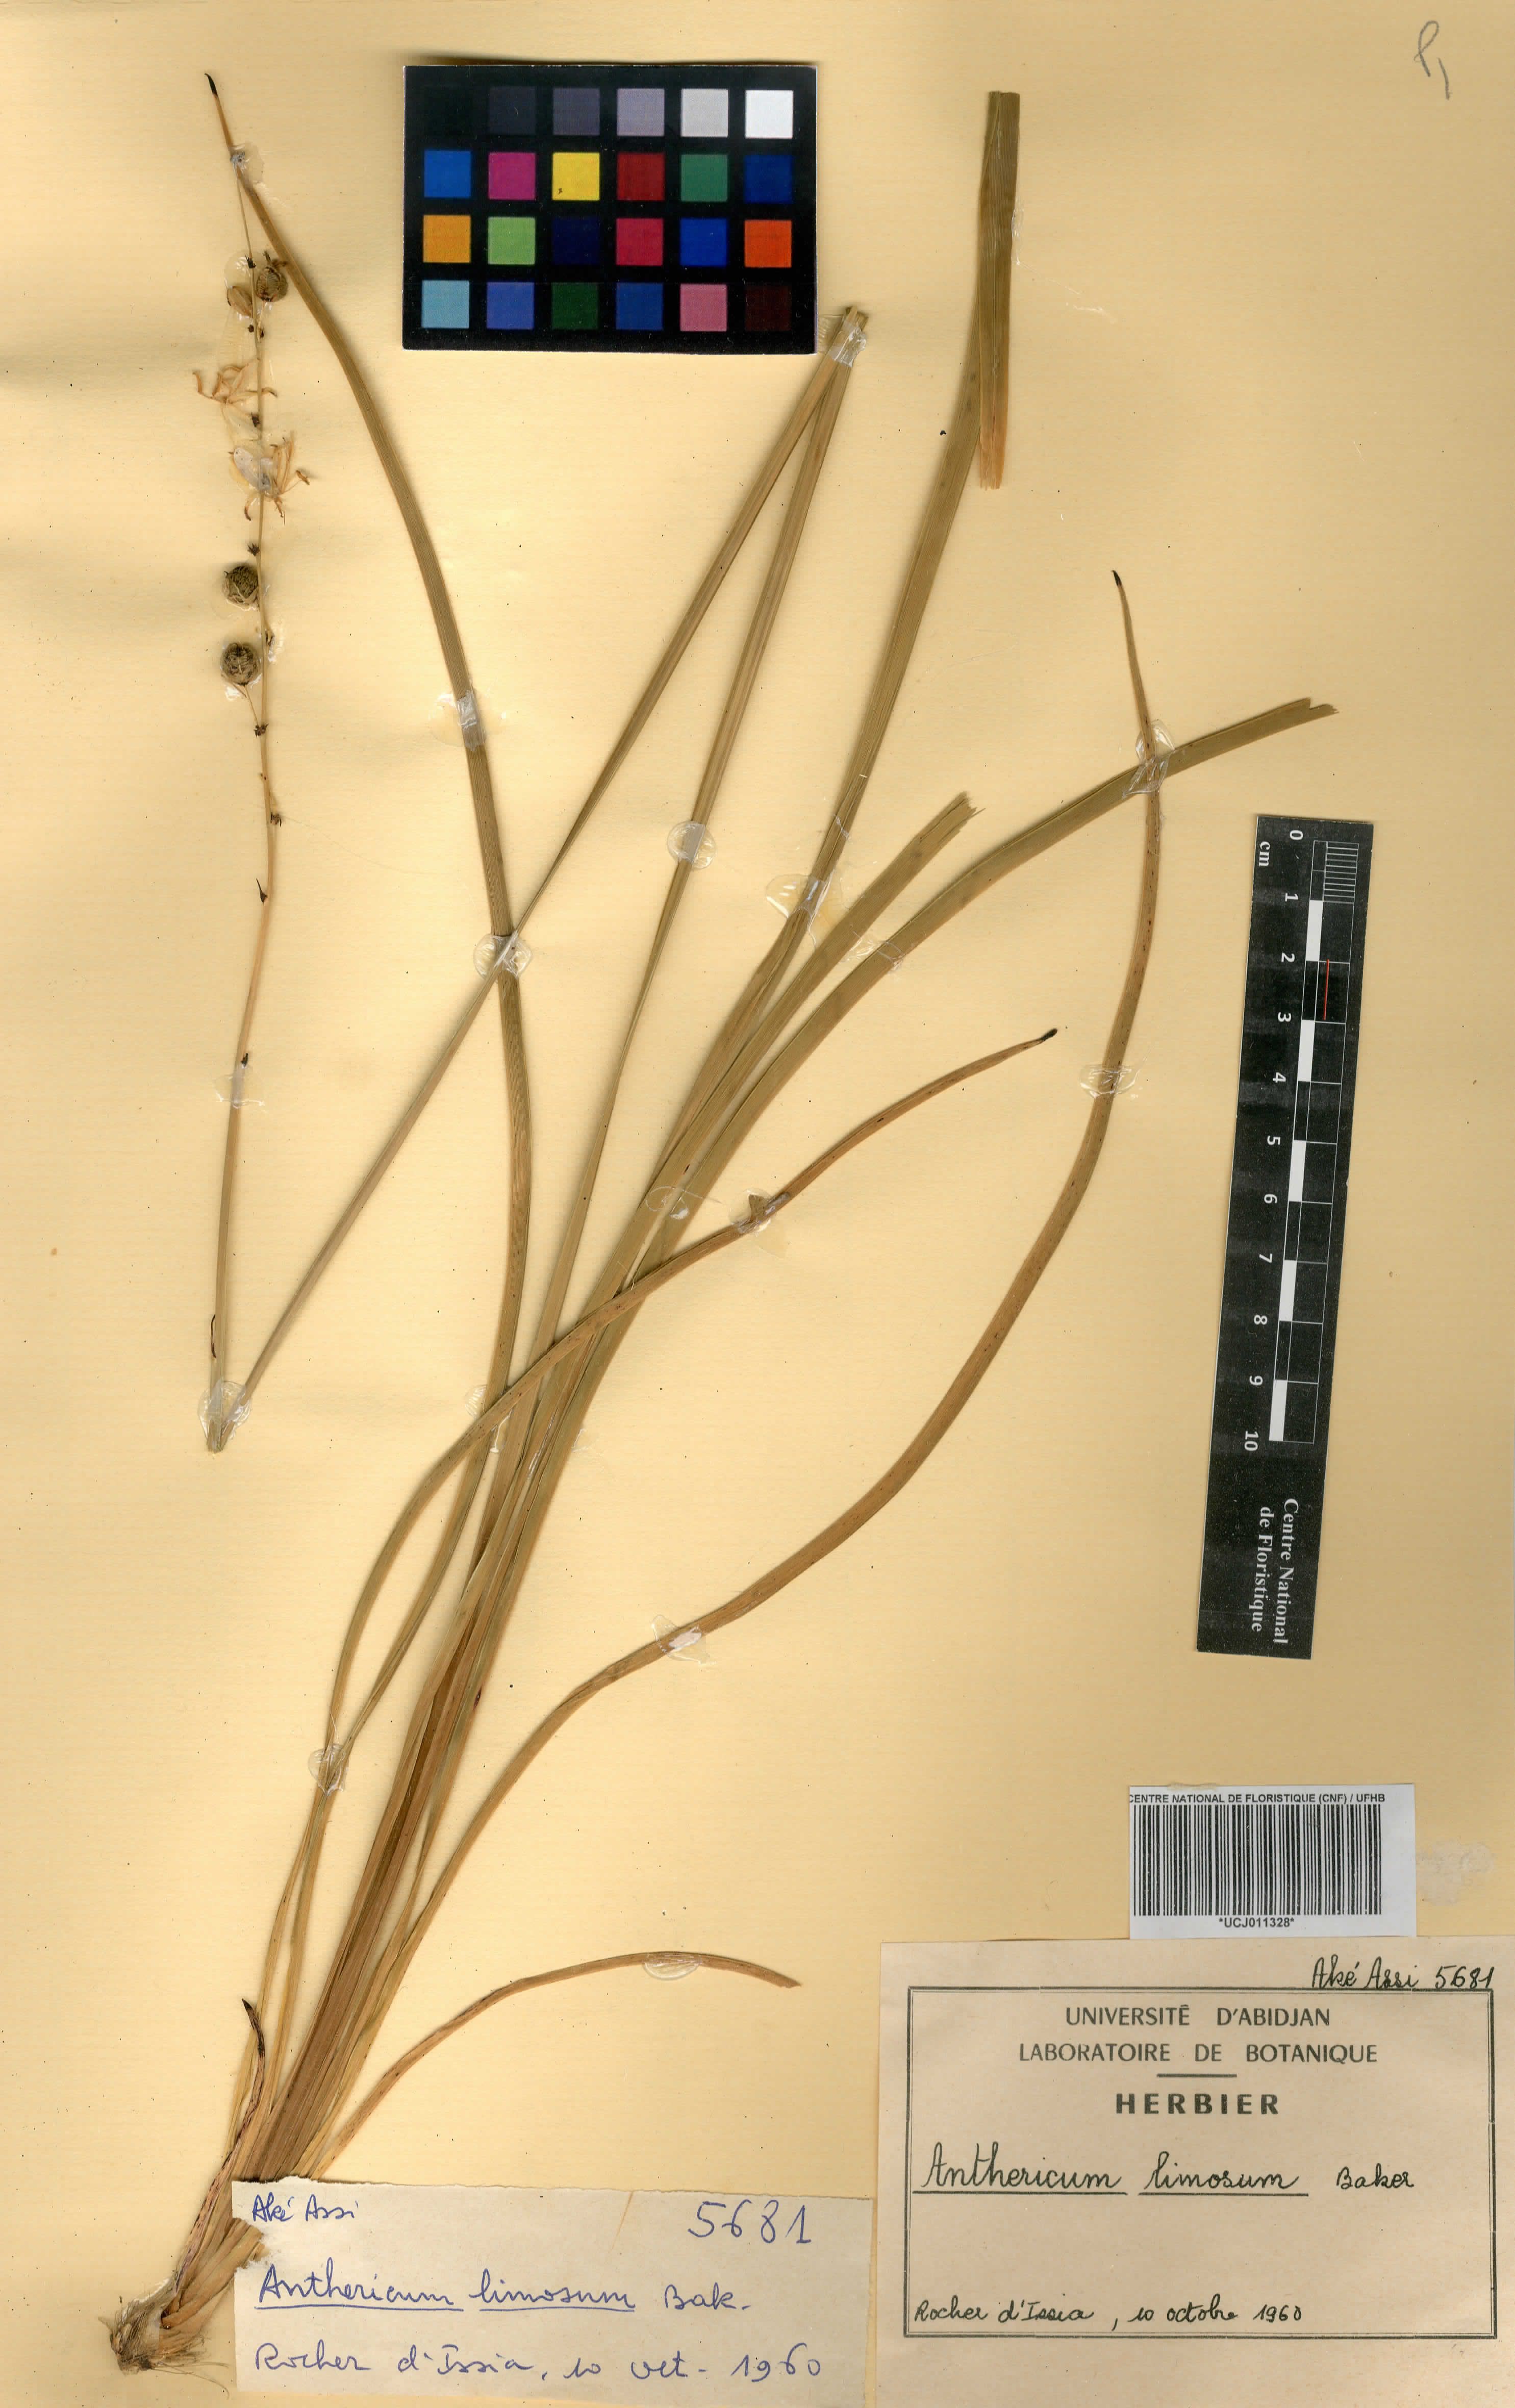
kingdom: Plantae
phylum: Tracheophyta
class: Liliopsida
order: Asparagales
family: Asparagaceae
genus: Chlorophytum
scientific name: Chlorophytum limosum
